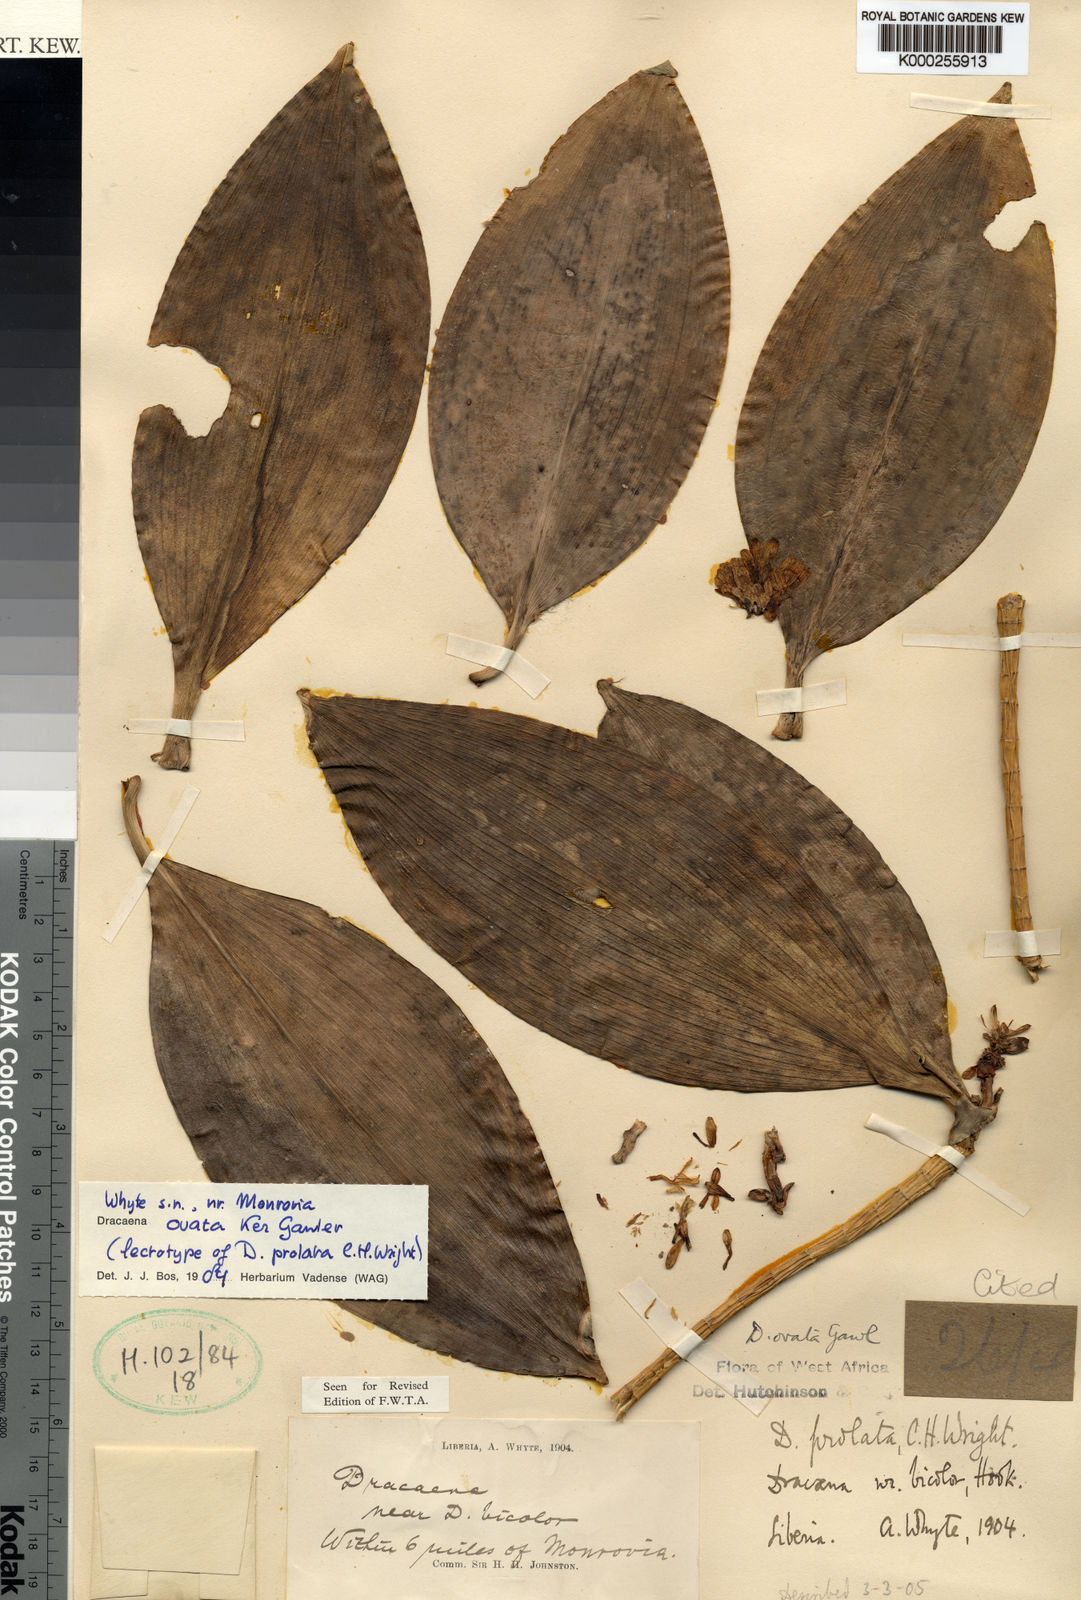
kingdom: Plantae
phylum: Tracheophyta
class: Liliopsida
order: Asparagales
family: Asparagaceae
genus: Dracaena
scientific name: Dracaena ovata
